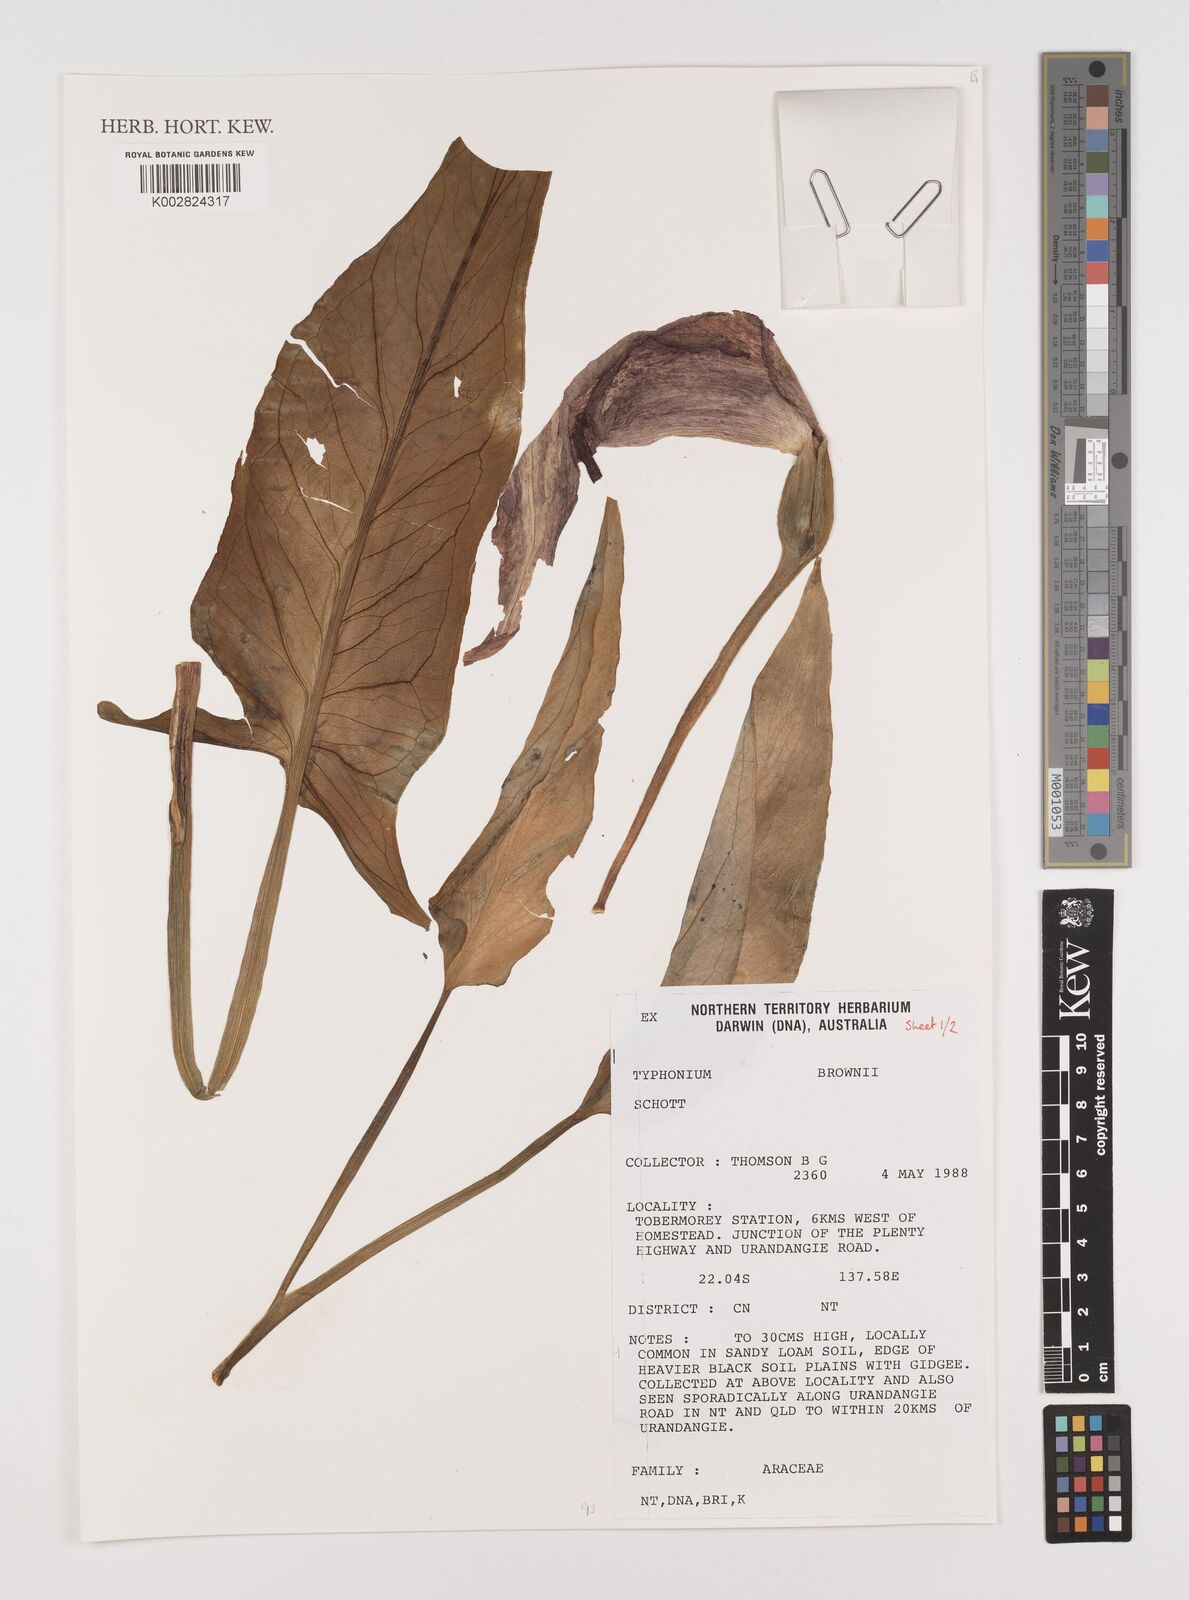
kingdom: Plantae
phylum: Tracheophyta
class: Liliopsida
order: Alismatales
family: Araceae
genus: Typhonium
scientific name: Typhonium brownii
